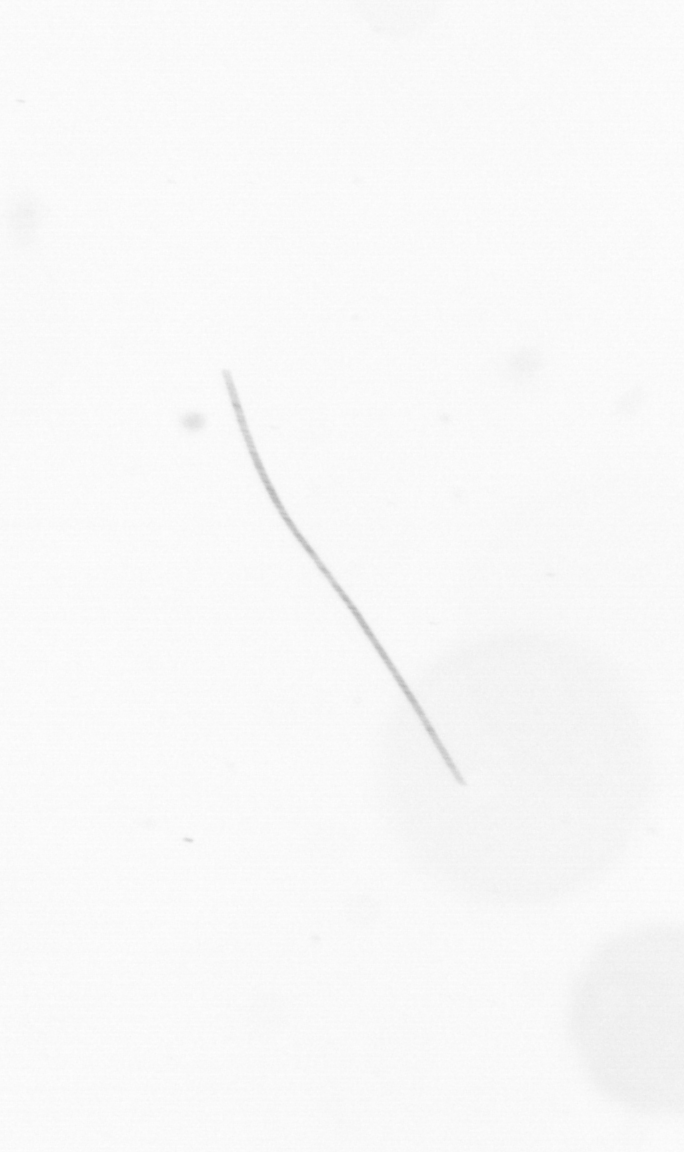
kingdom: Chromista
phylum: Ochrophyta
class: Bacillariophyceae
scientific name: Bacillariophyceae
